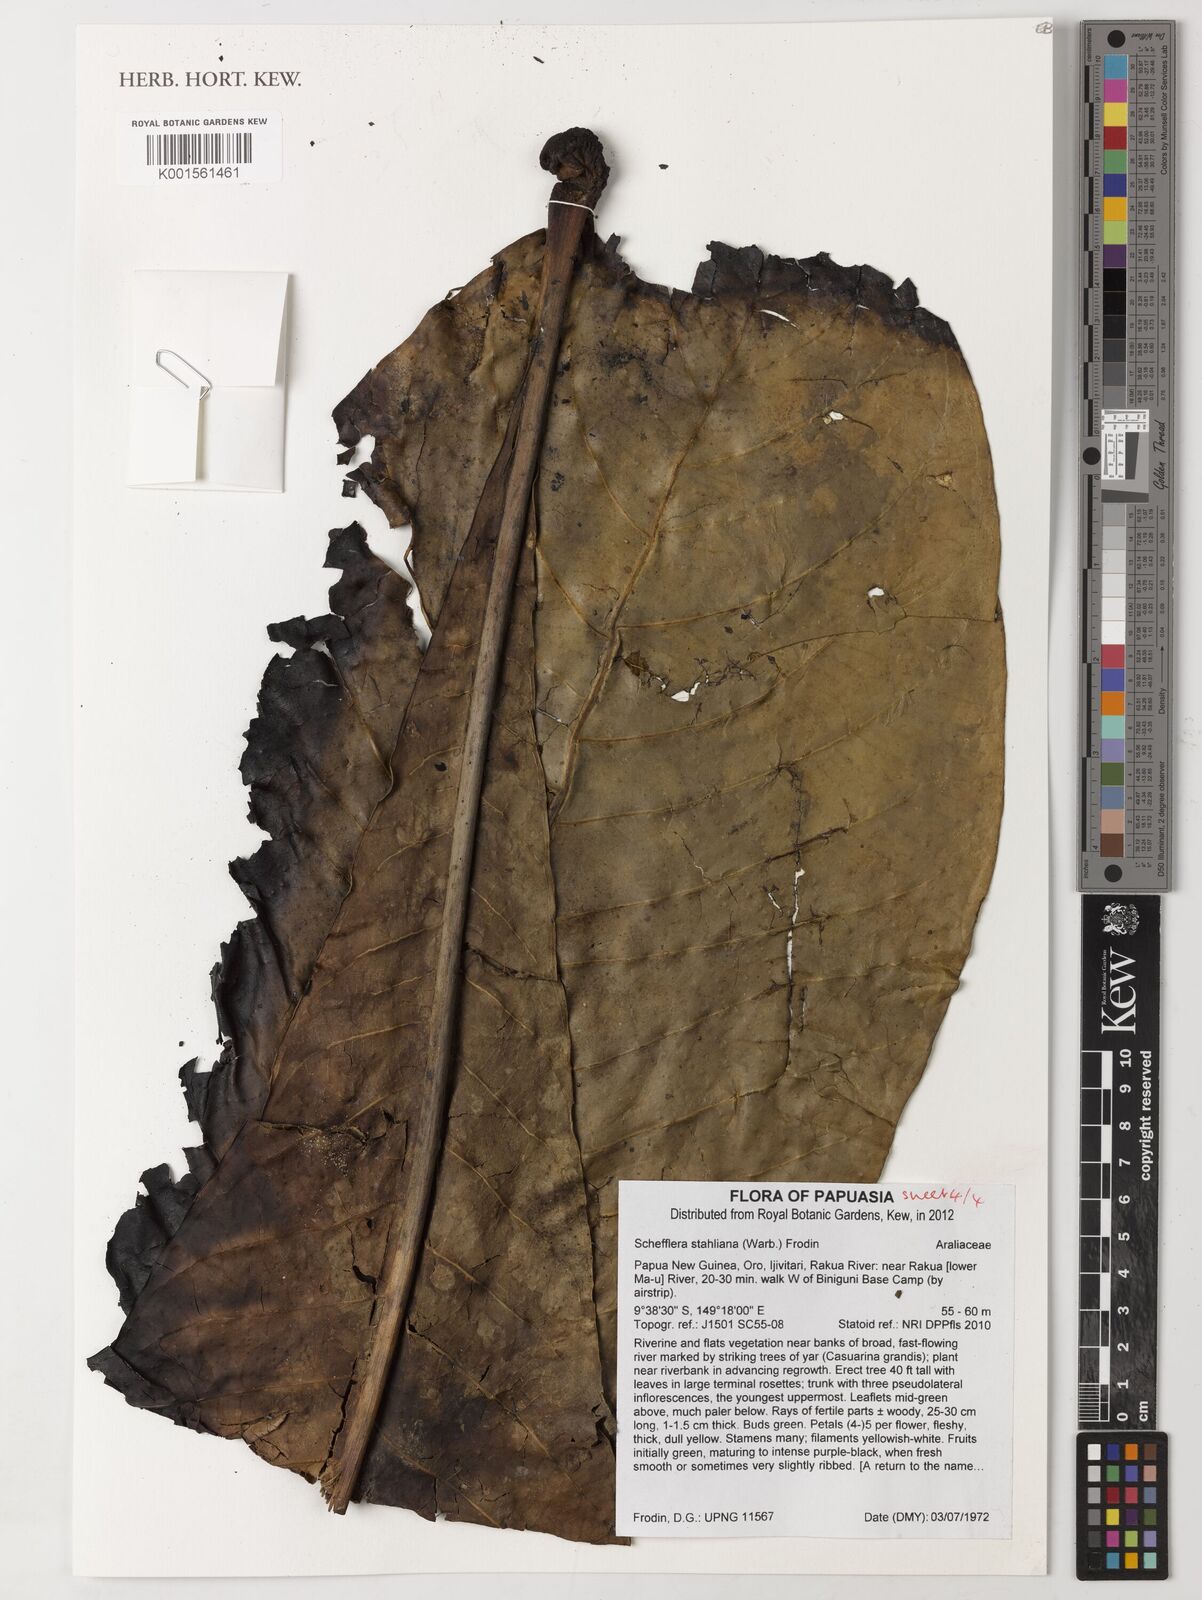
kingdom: Plantae
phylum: Tracheophyta
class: Magnoliopsida
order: Apiales
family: Araliaceae
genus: Plerandra
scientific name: Plerandra stahliana
